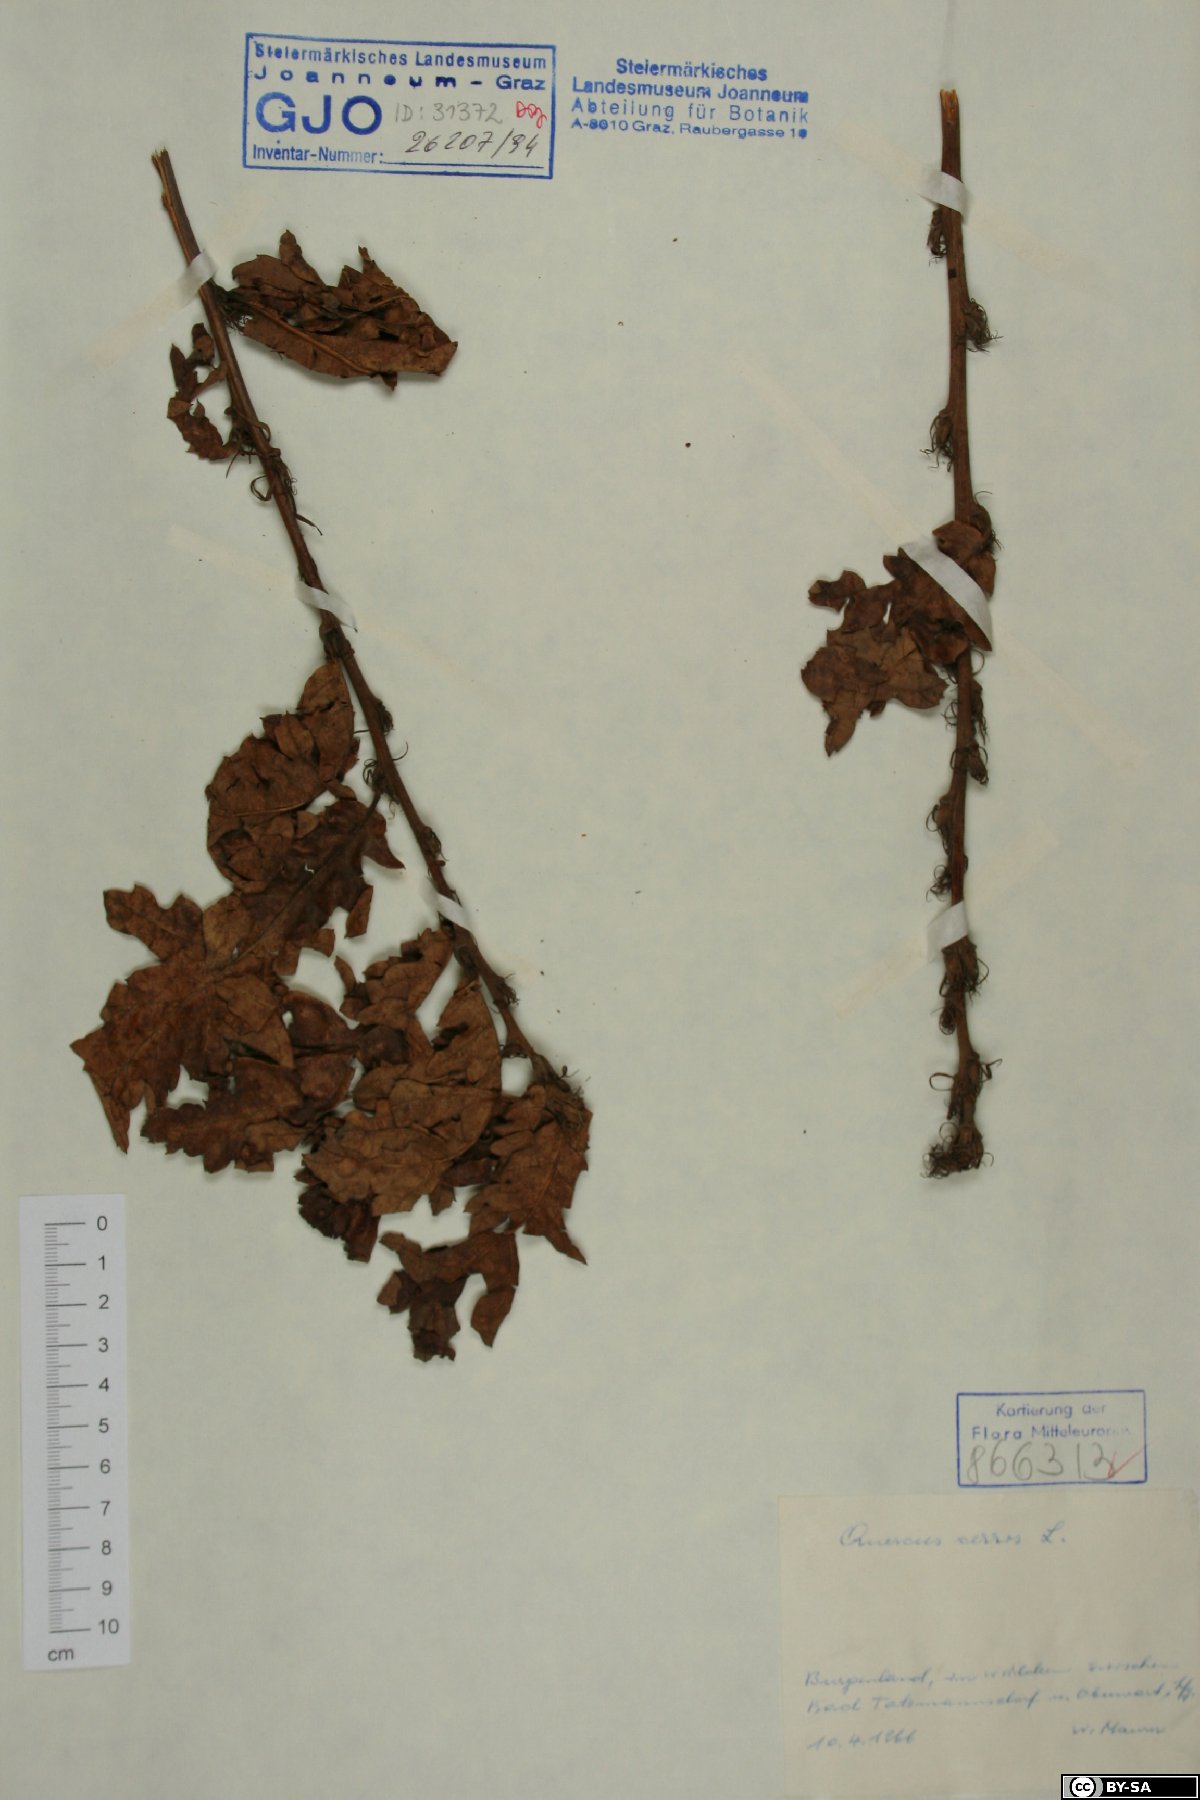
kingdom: Plantae
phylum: Tracheophyta
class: Magnoliopsida
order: Fagales
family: Fagaceae
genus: Quercus
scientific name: Quercus cerris
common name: Turkey oak
